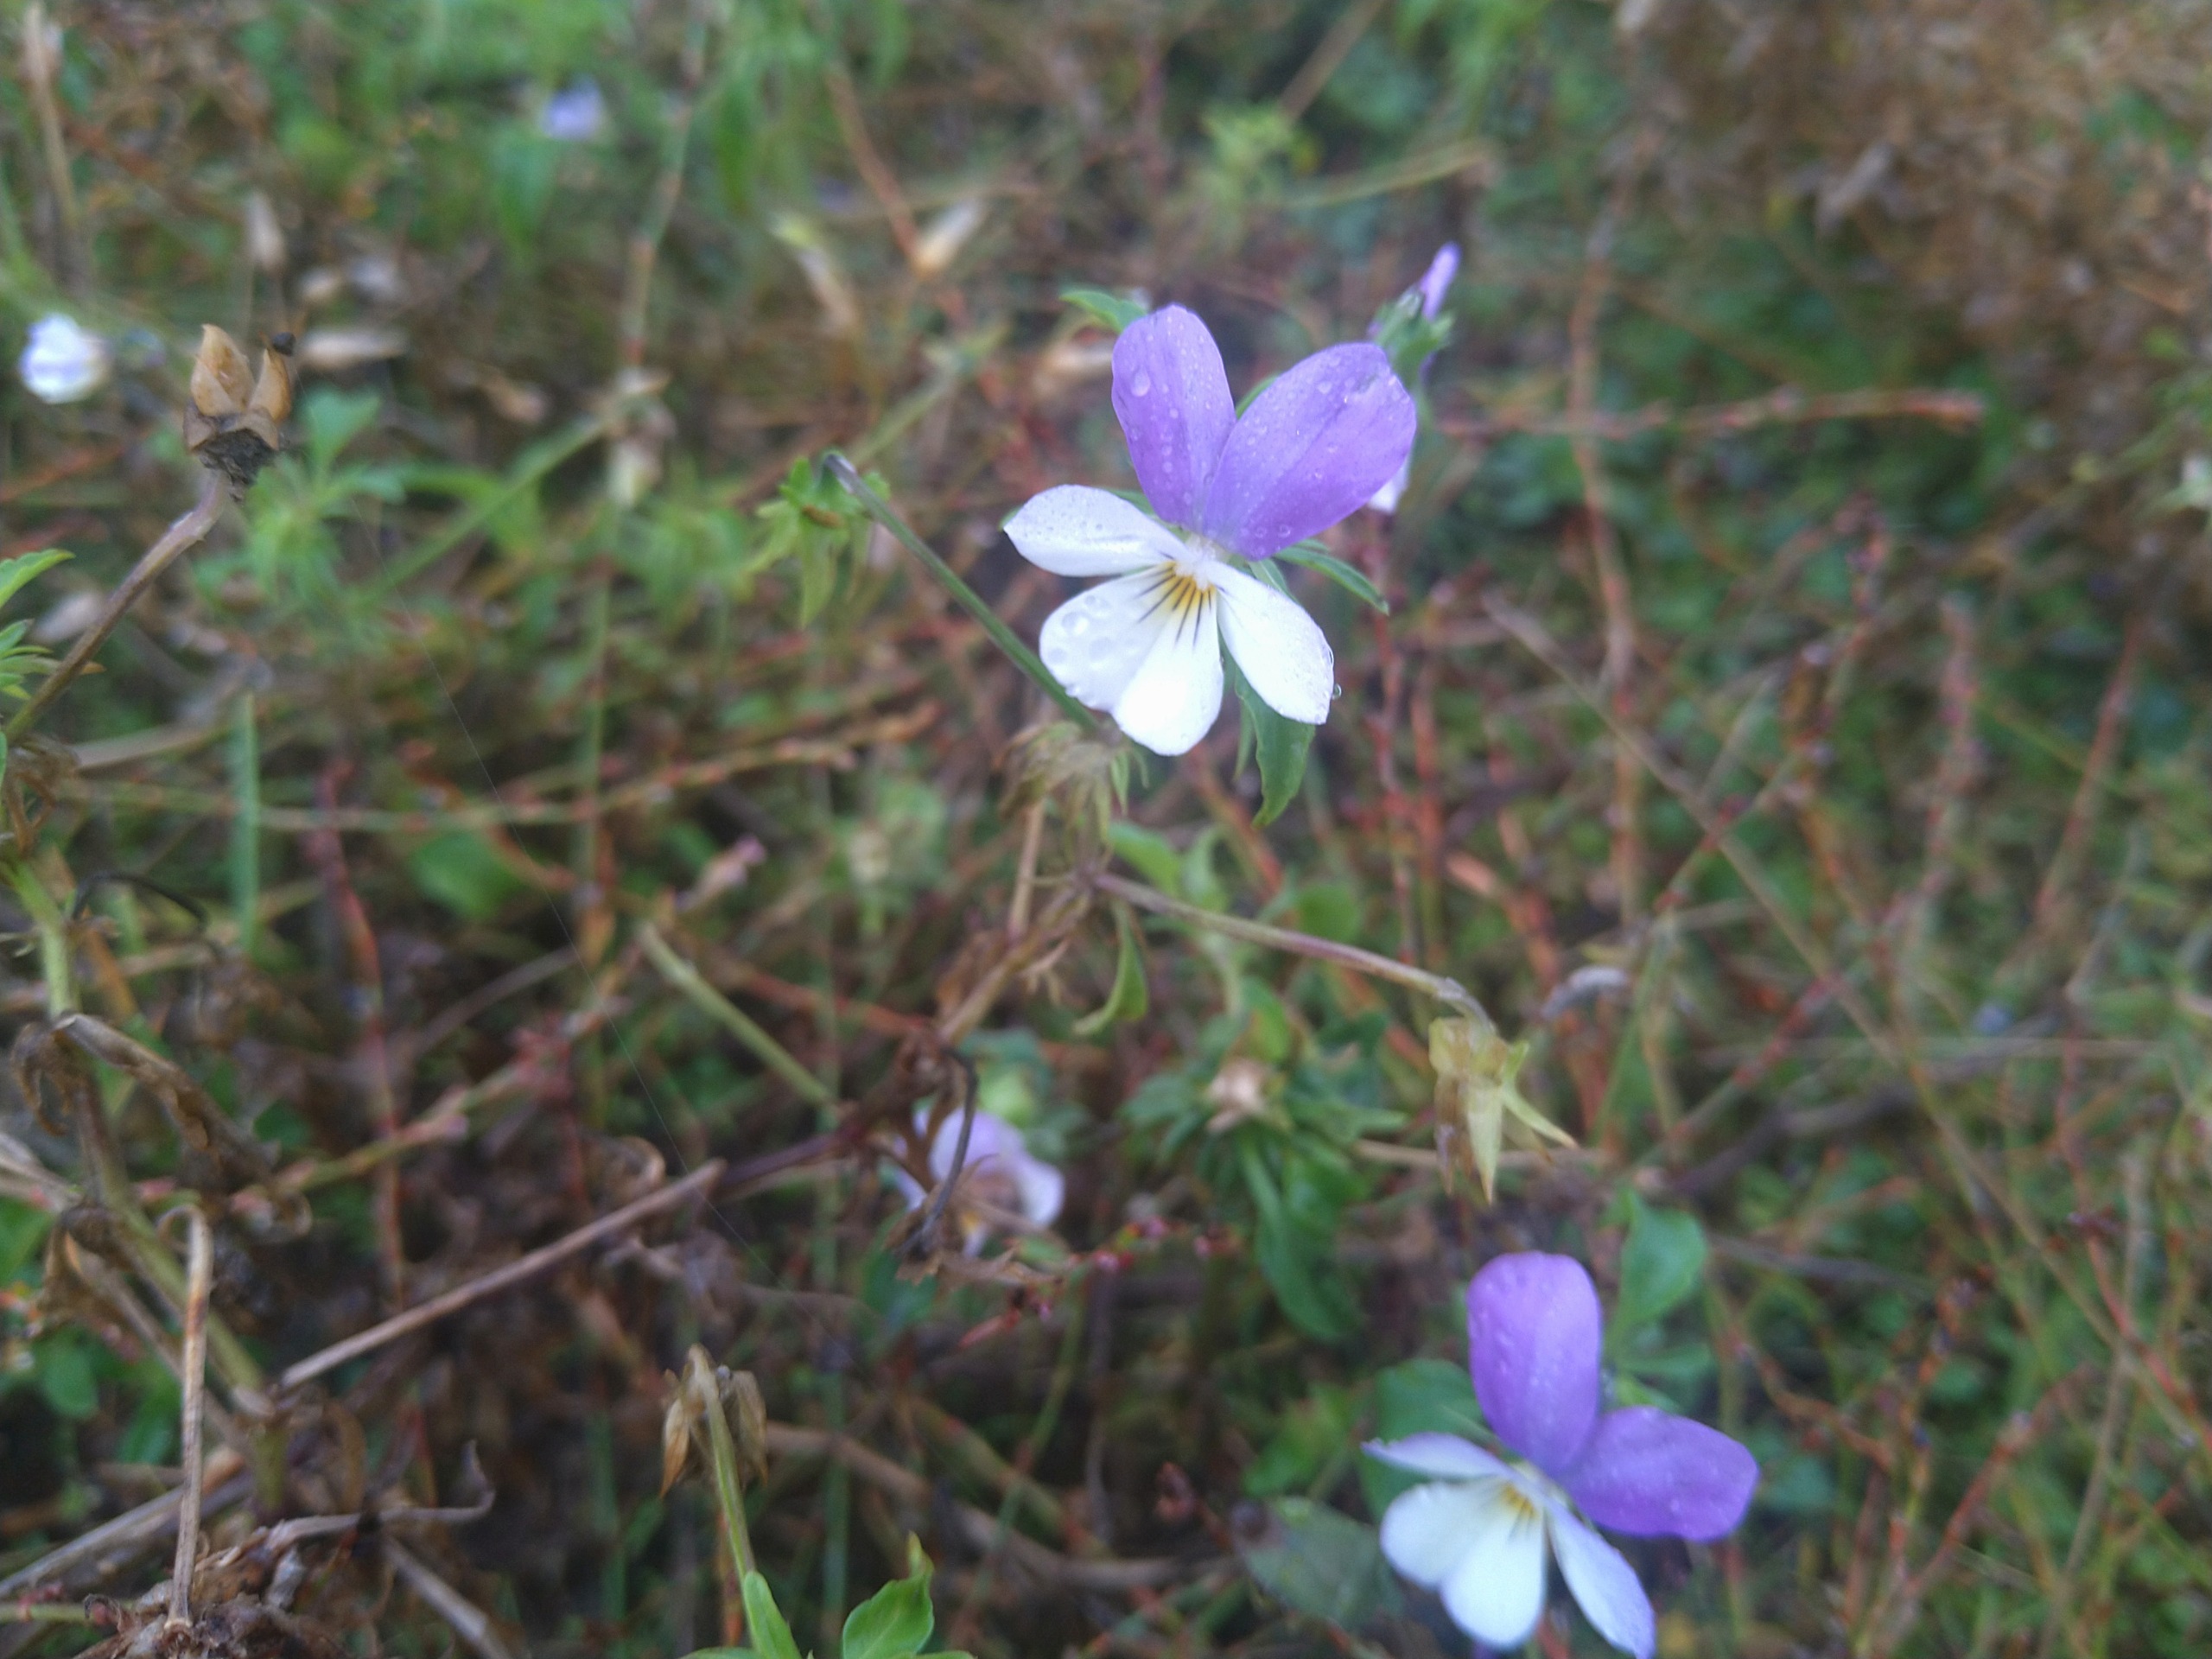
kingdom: Plantae
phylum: Tracheophyta
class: Magnoliopsida
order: Malpighiales
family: Violaceae
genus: Viola
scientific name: Viola tricolor
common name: Stedmoderblomst
